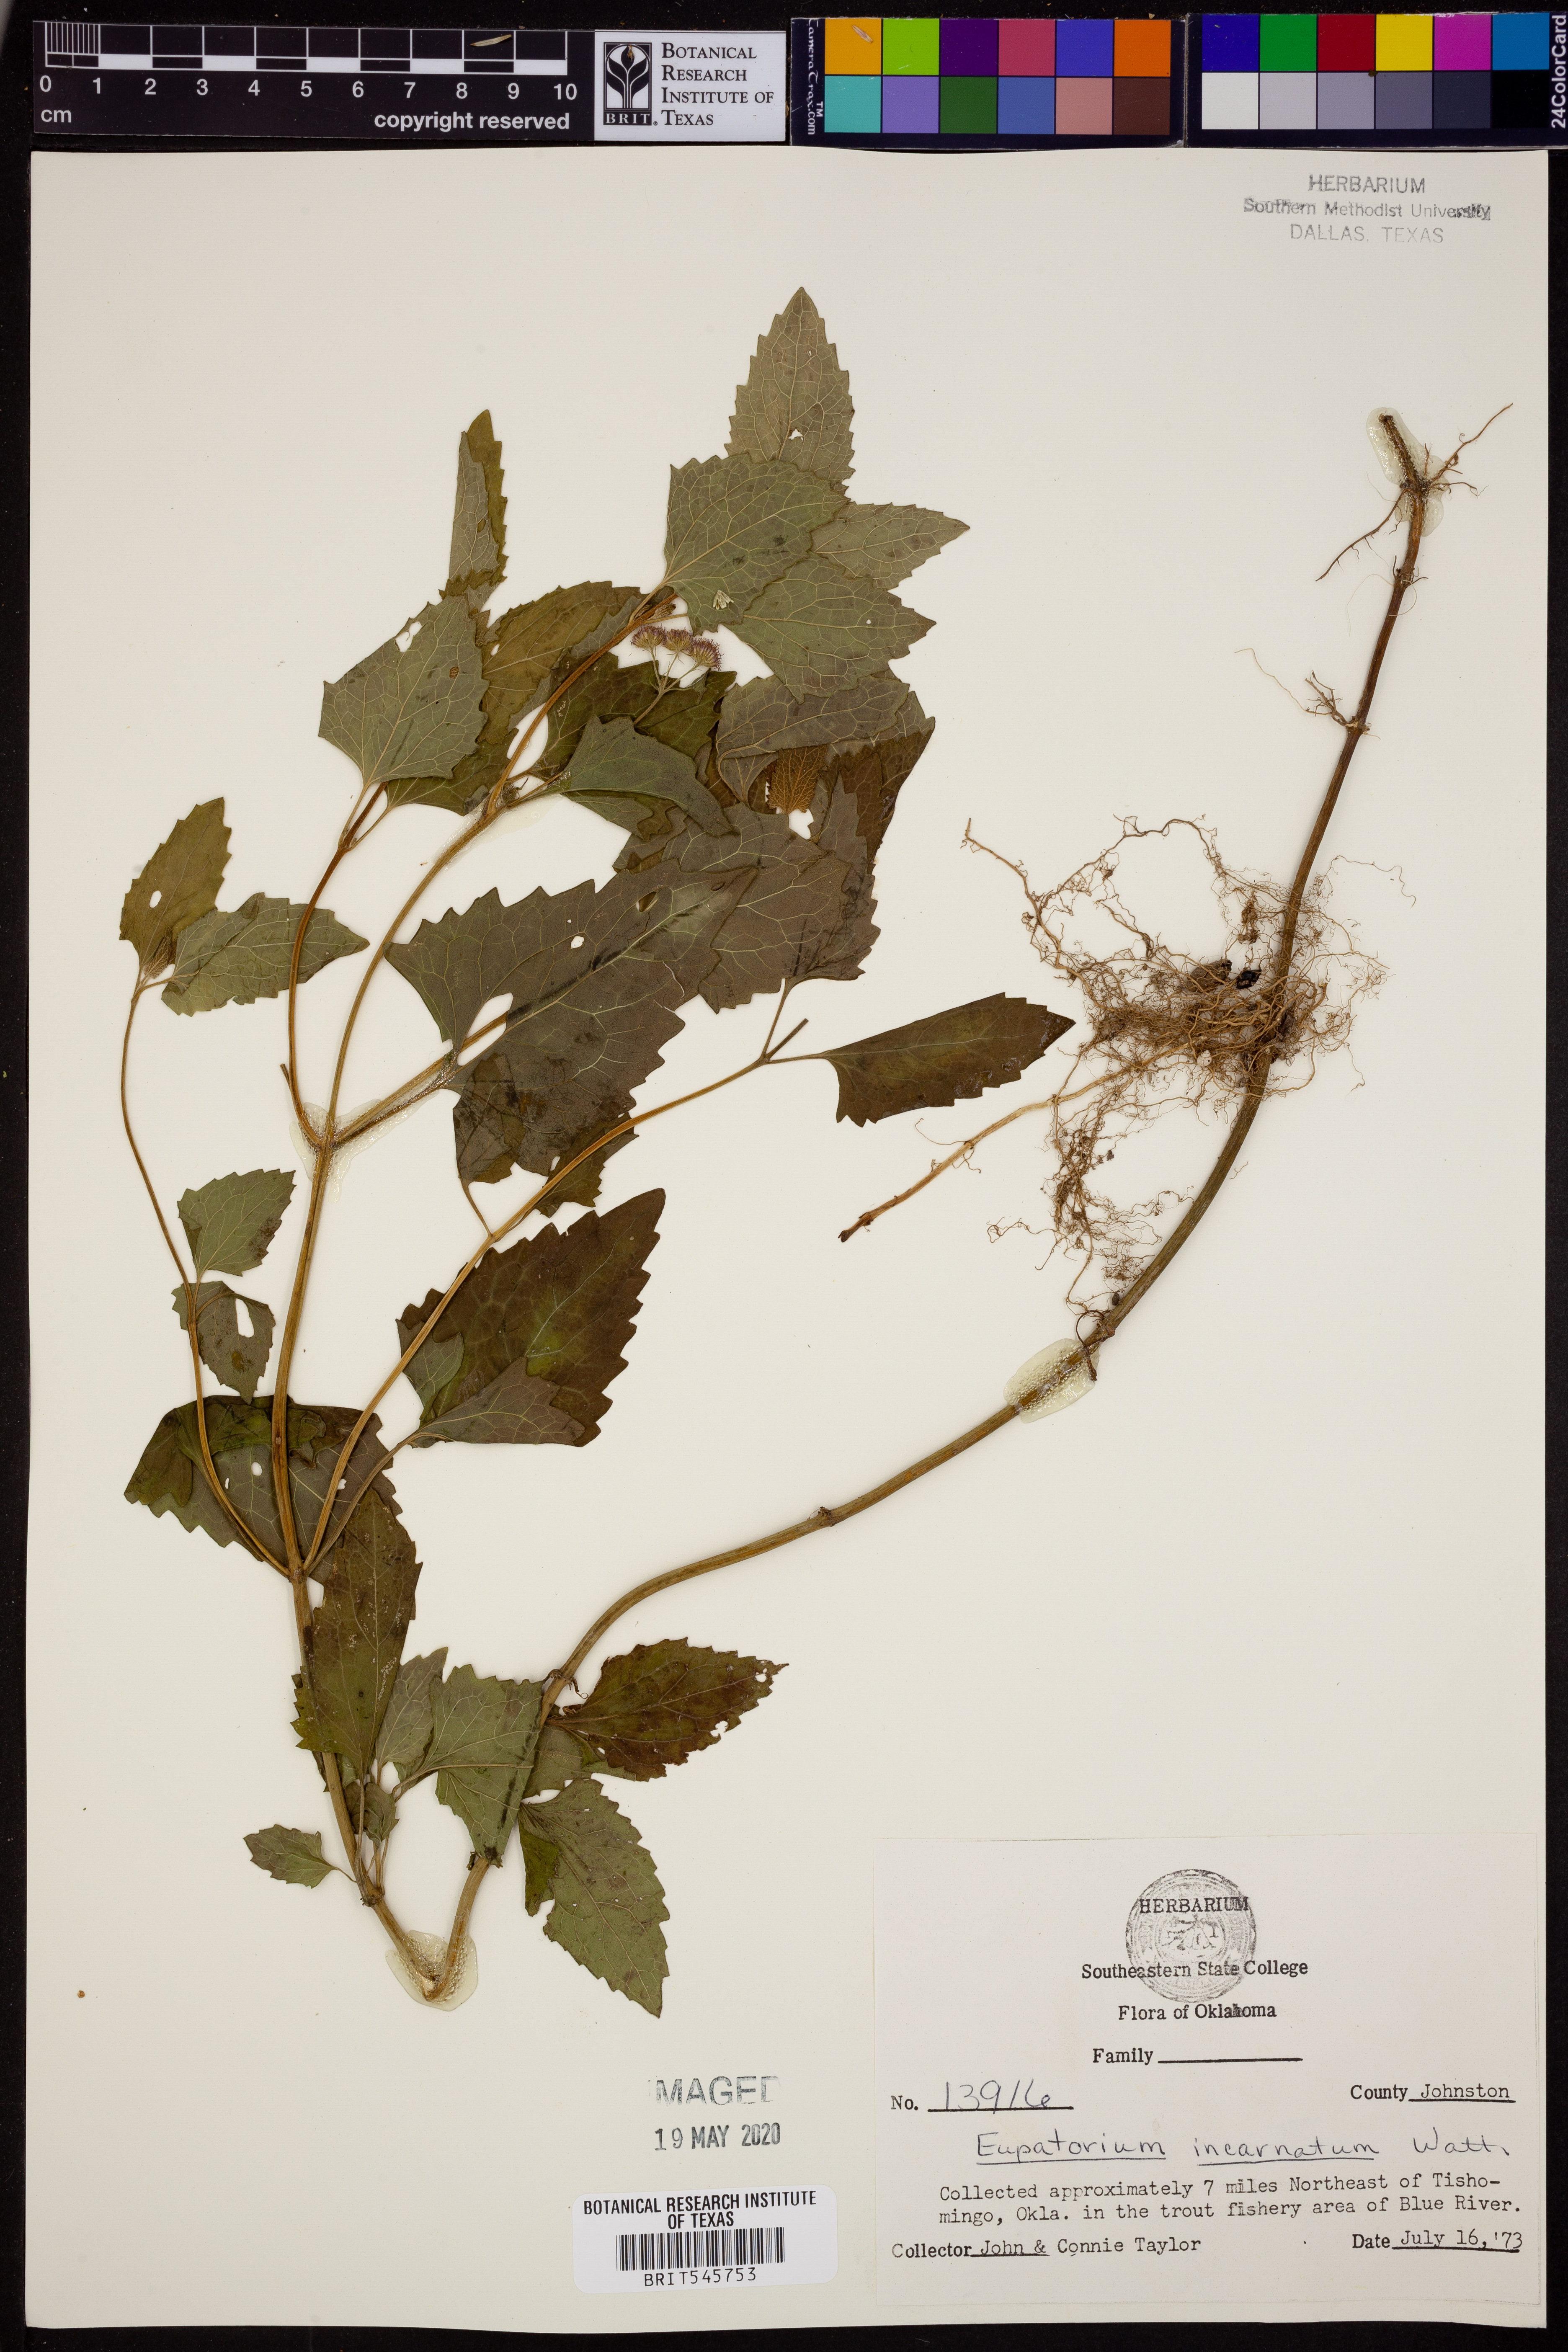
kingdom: Plantae
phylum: Tracheophyta
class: Magnoliopsida
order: Asterales
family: Asteraceae
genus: Fleischmannia
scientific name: Fleischmannia incarnata
